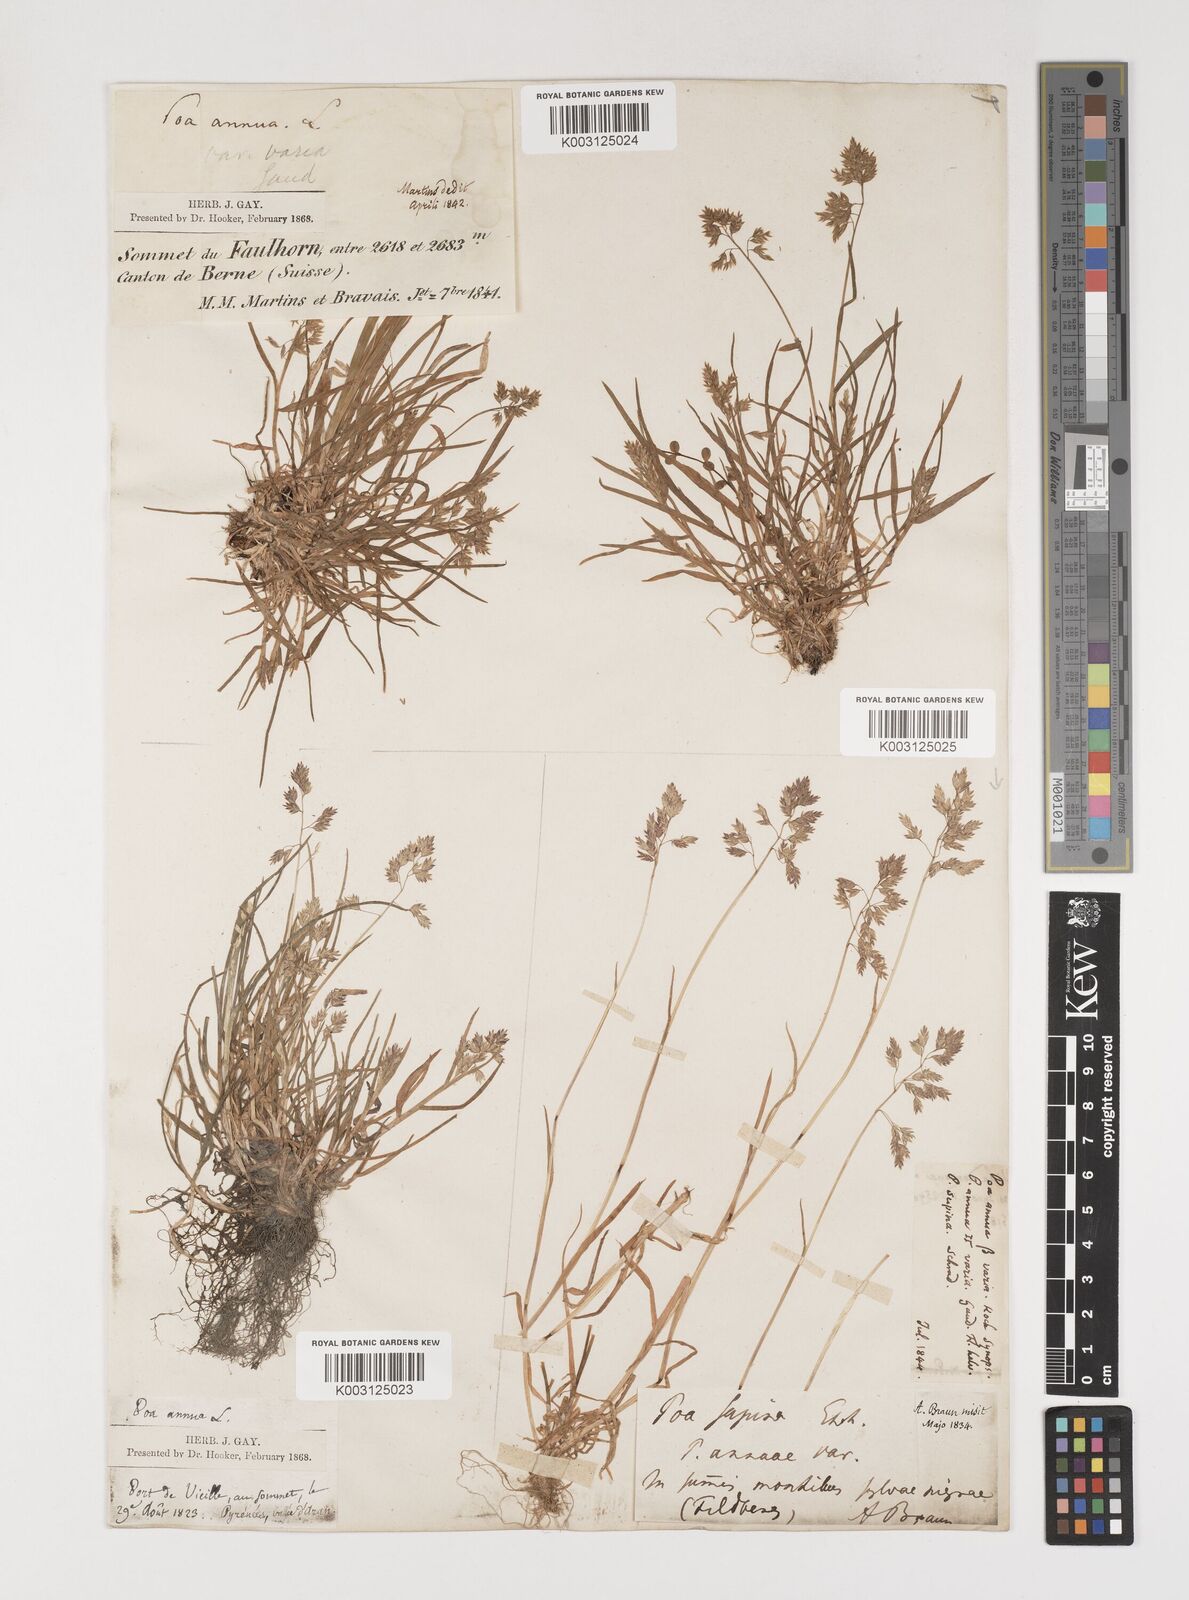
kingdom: Plantae
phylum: Tracheophyta
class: Liliopsida
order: Poales
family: Poaceae
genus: Poa
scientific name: Poa supina
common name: Supina bluegrass
